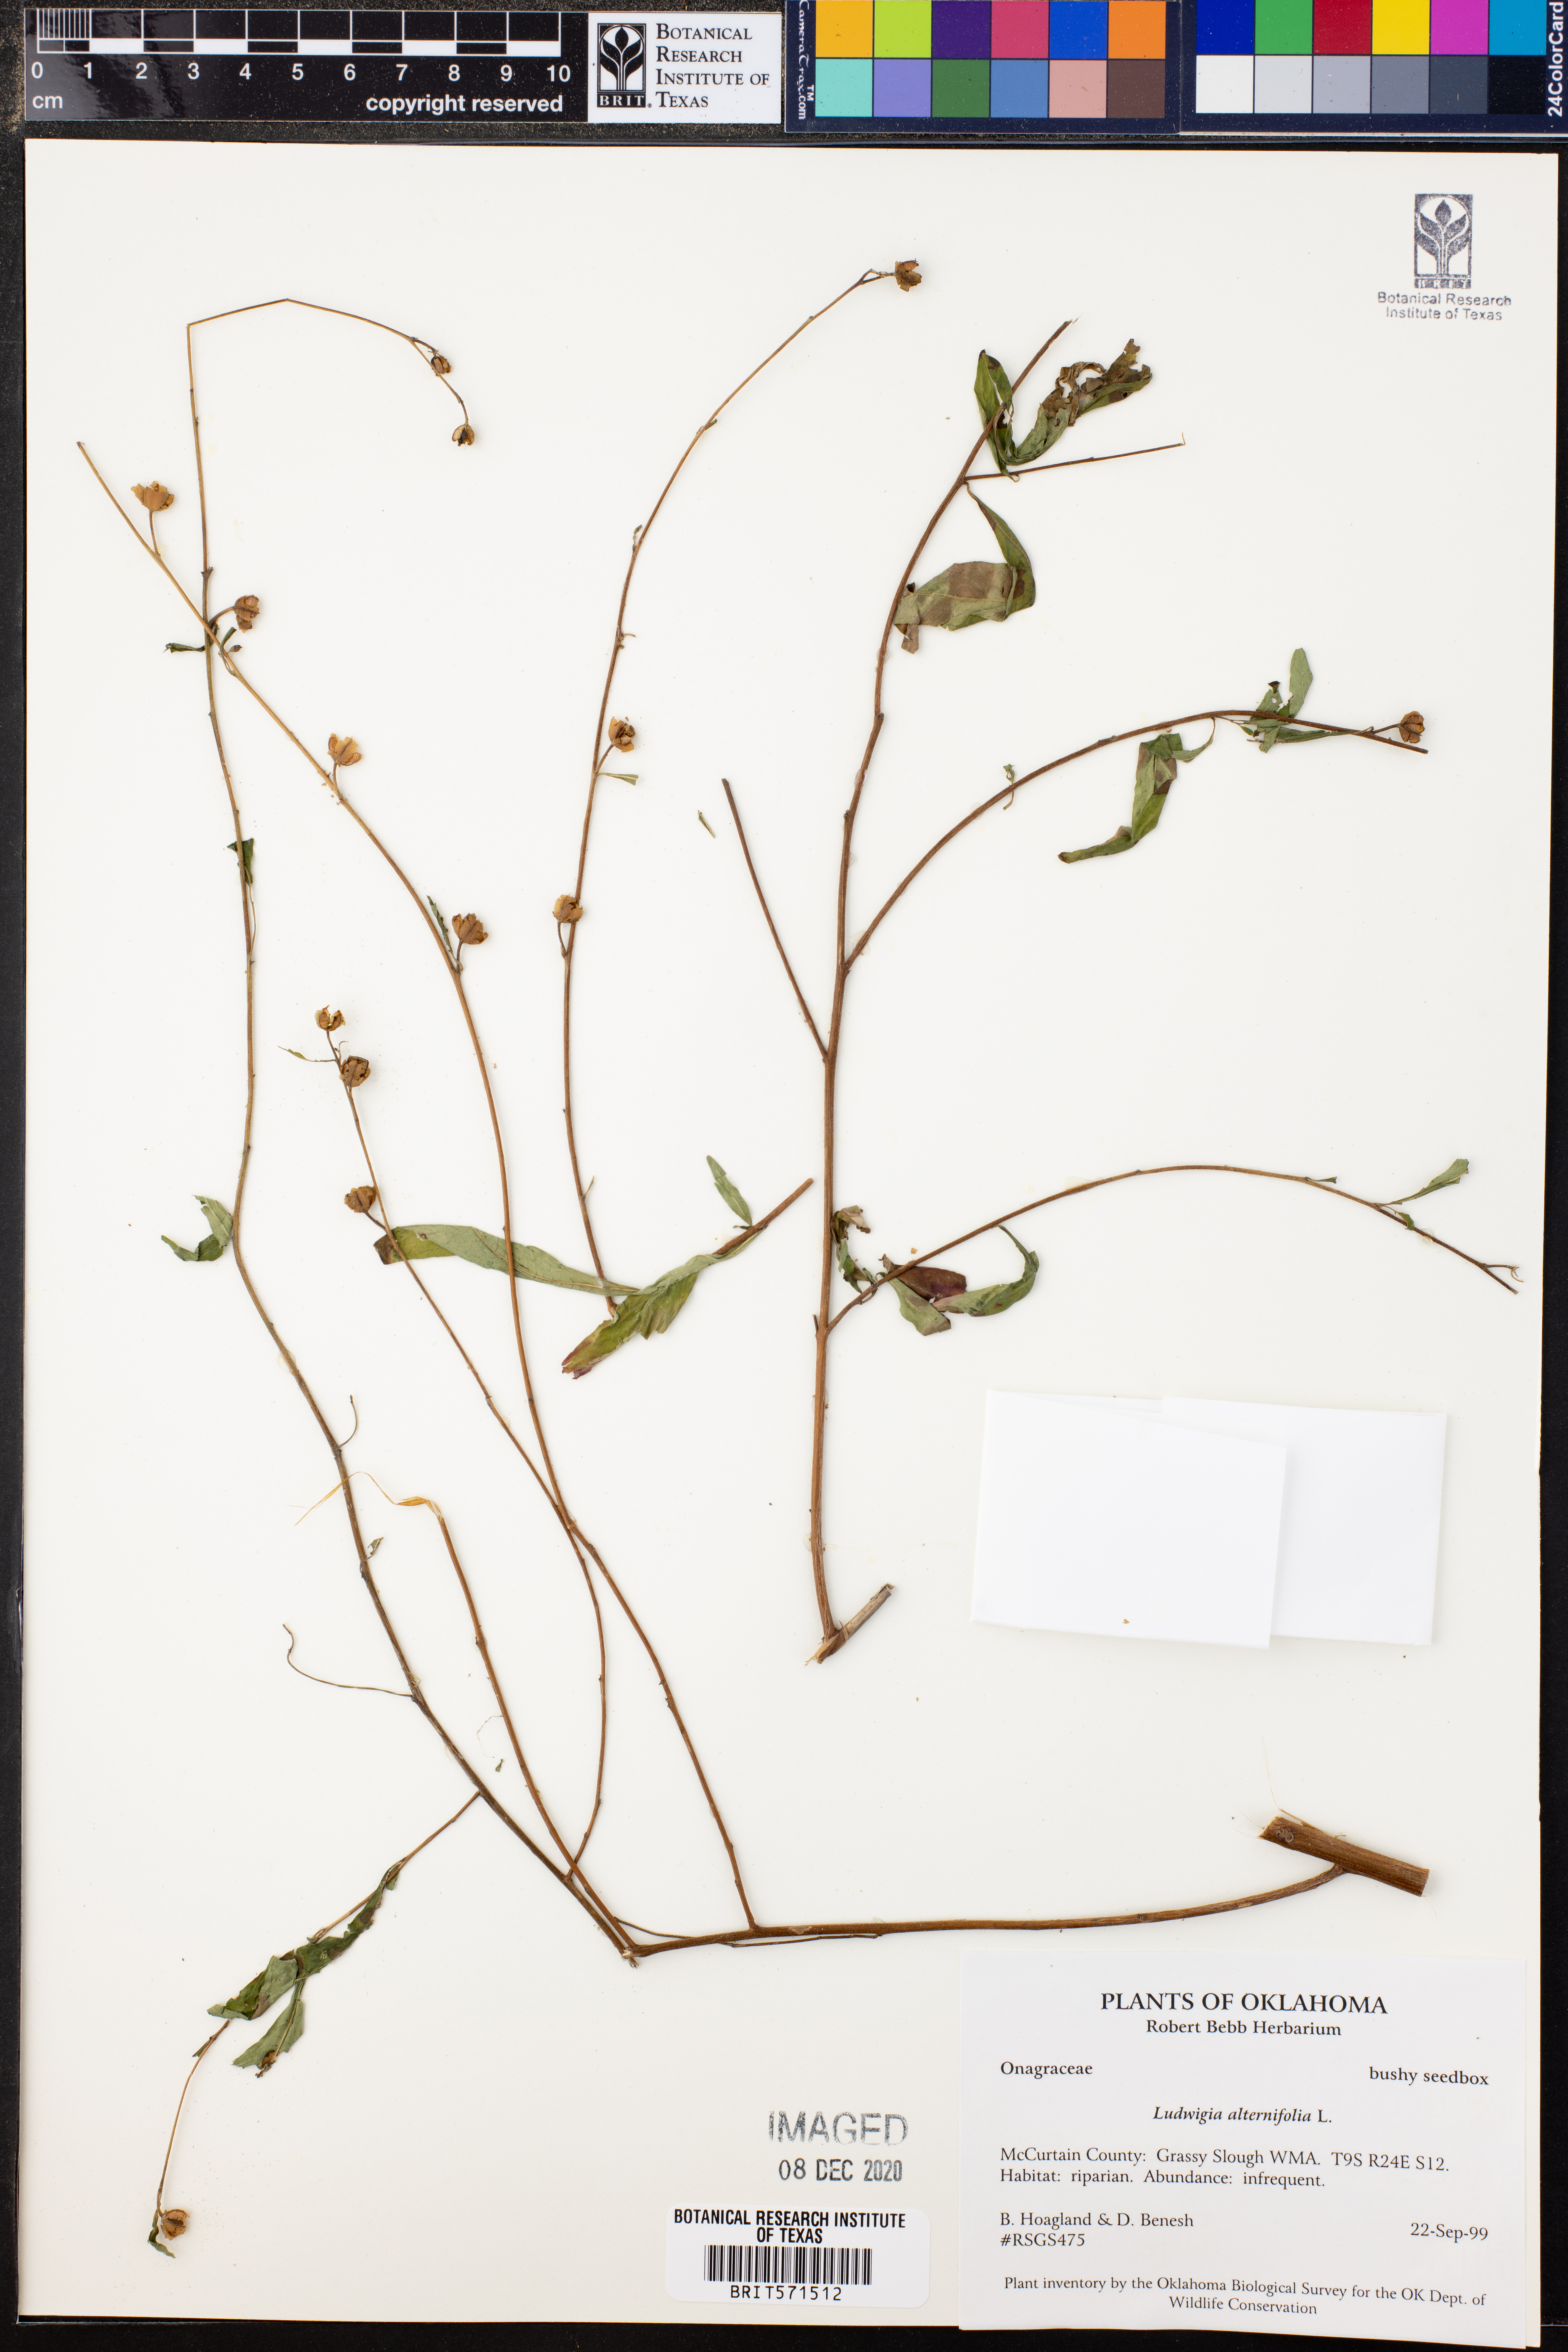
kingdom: Plantae
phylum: Tracheophyta
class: Magnoliopsida
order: Myrtales
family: Onagraceae
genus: Ludwigia
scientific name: Ludwigia alternifolia
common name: Rattlebox
